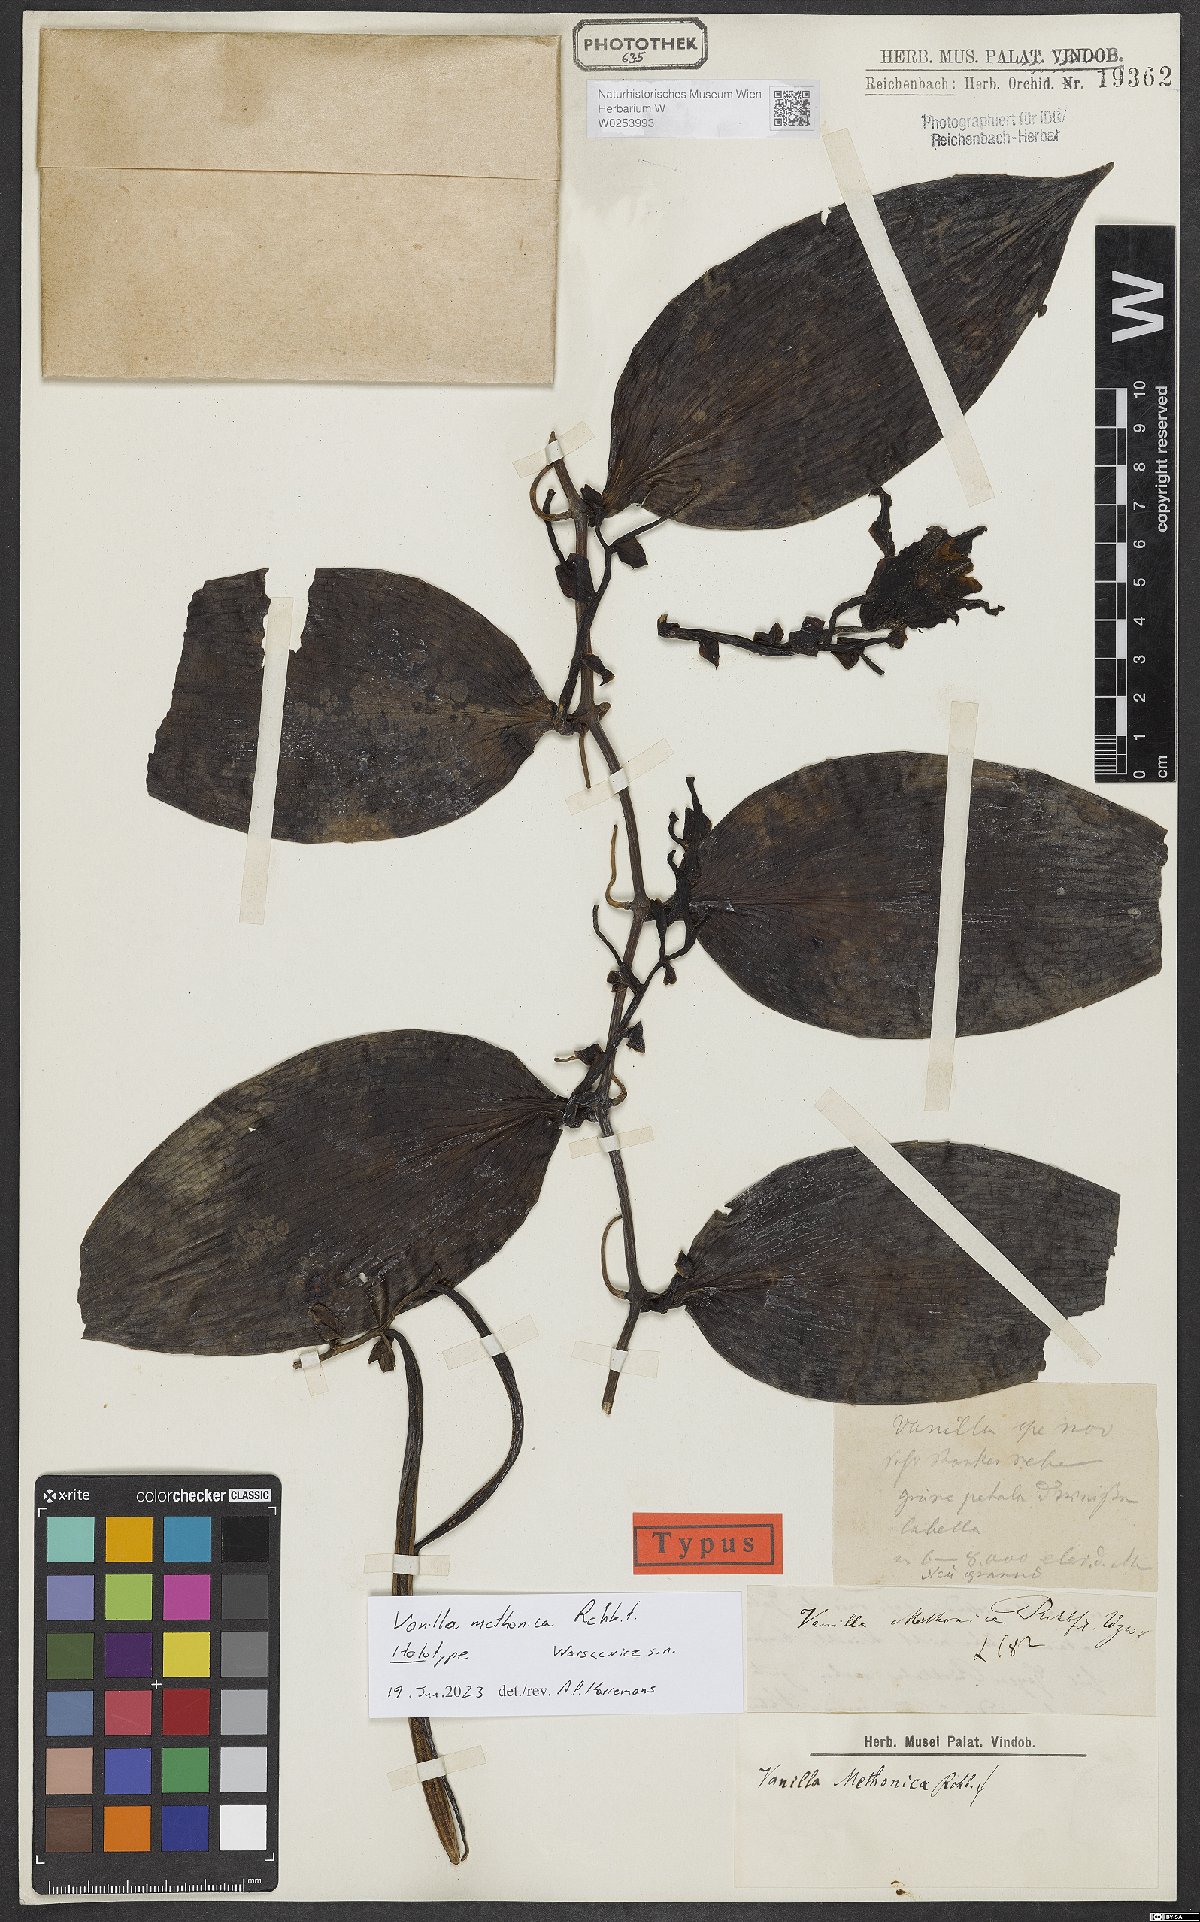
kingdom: Plantae
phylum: Tracheophyta
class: Liliopsida
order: Asparagales
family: Orchidaceae
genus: Vanilla
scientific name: Vanilla
